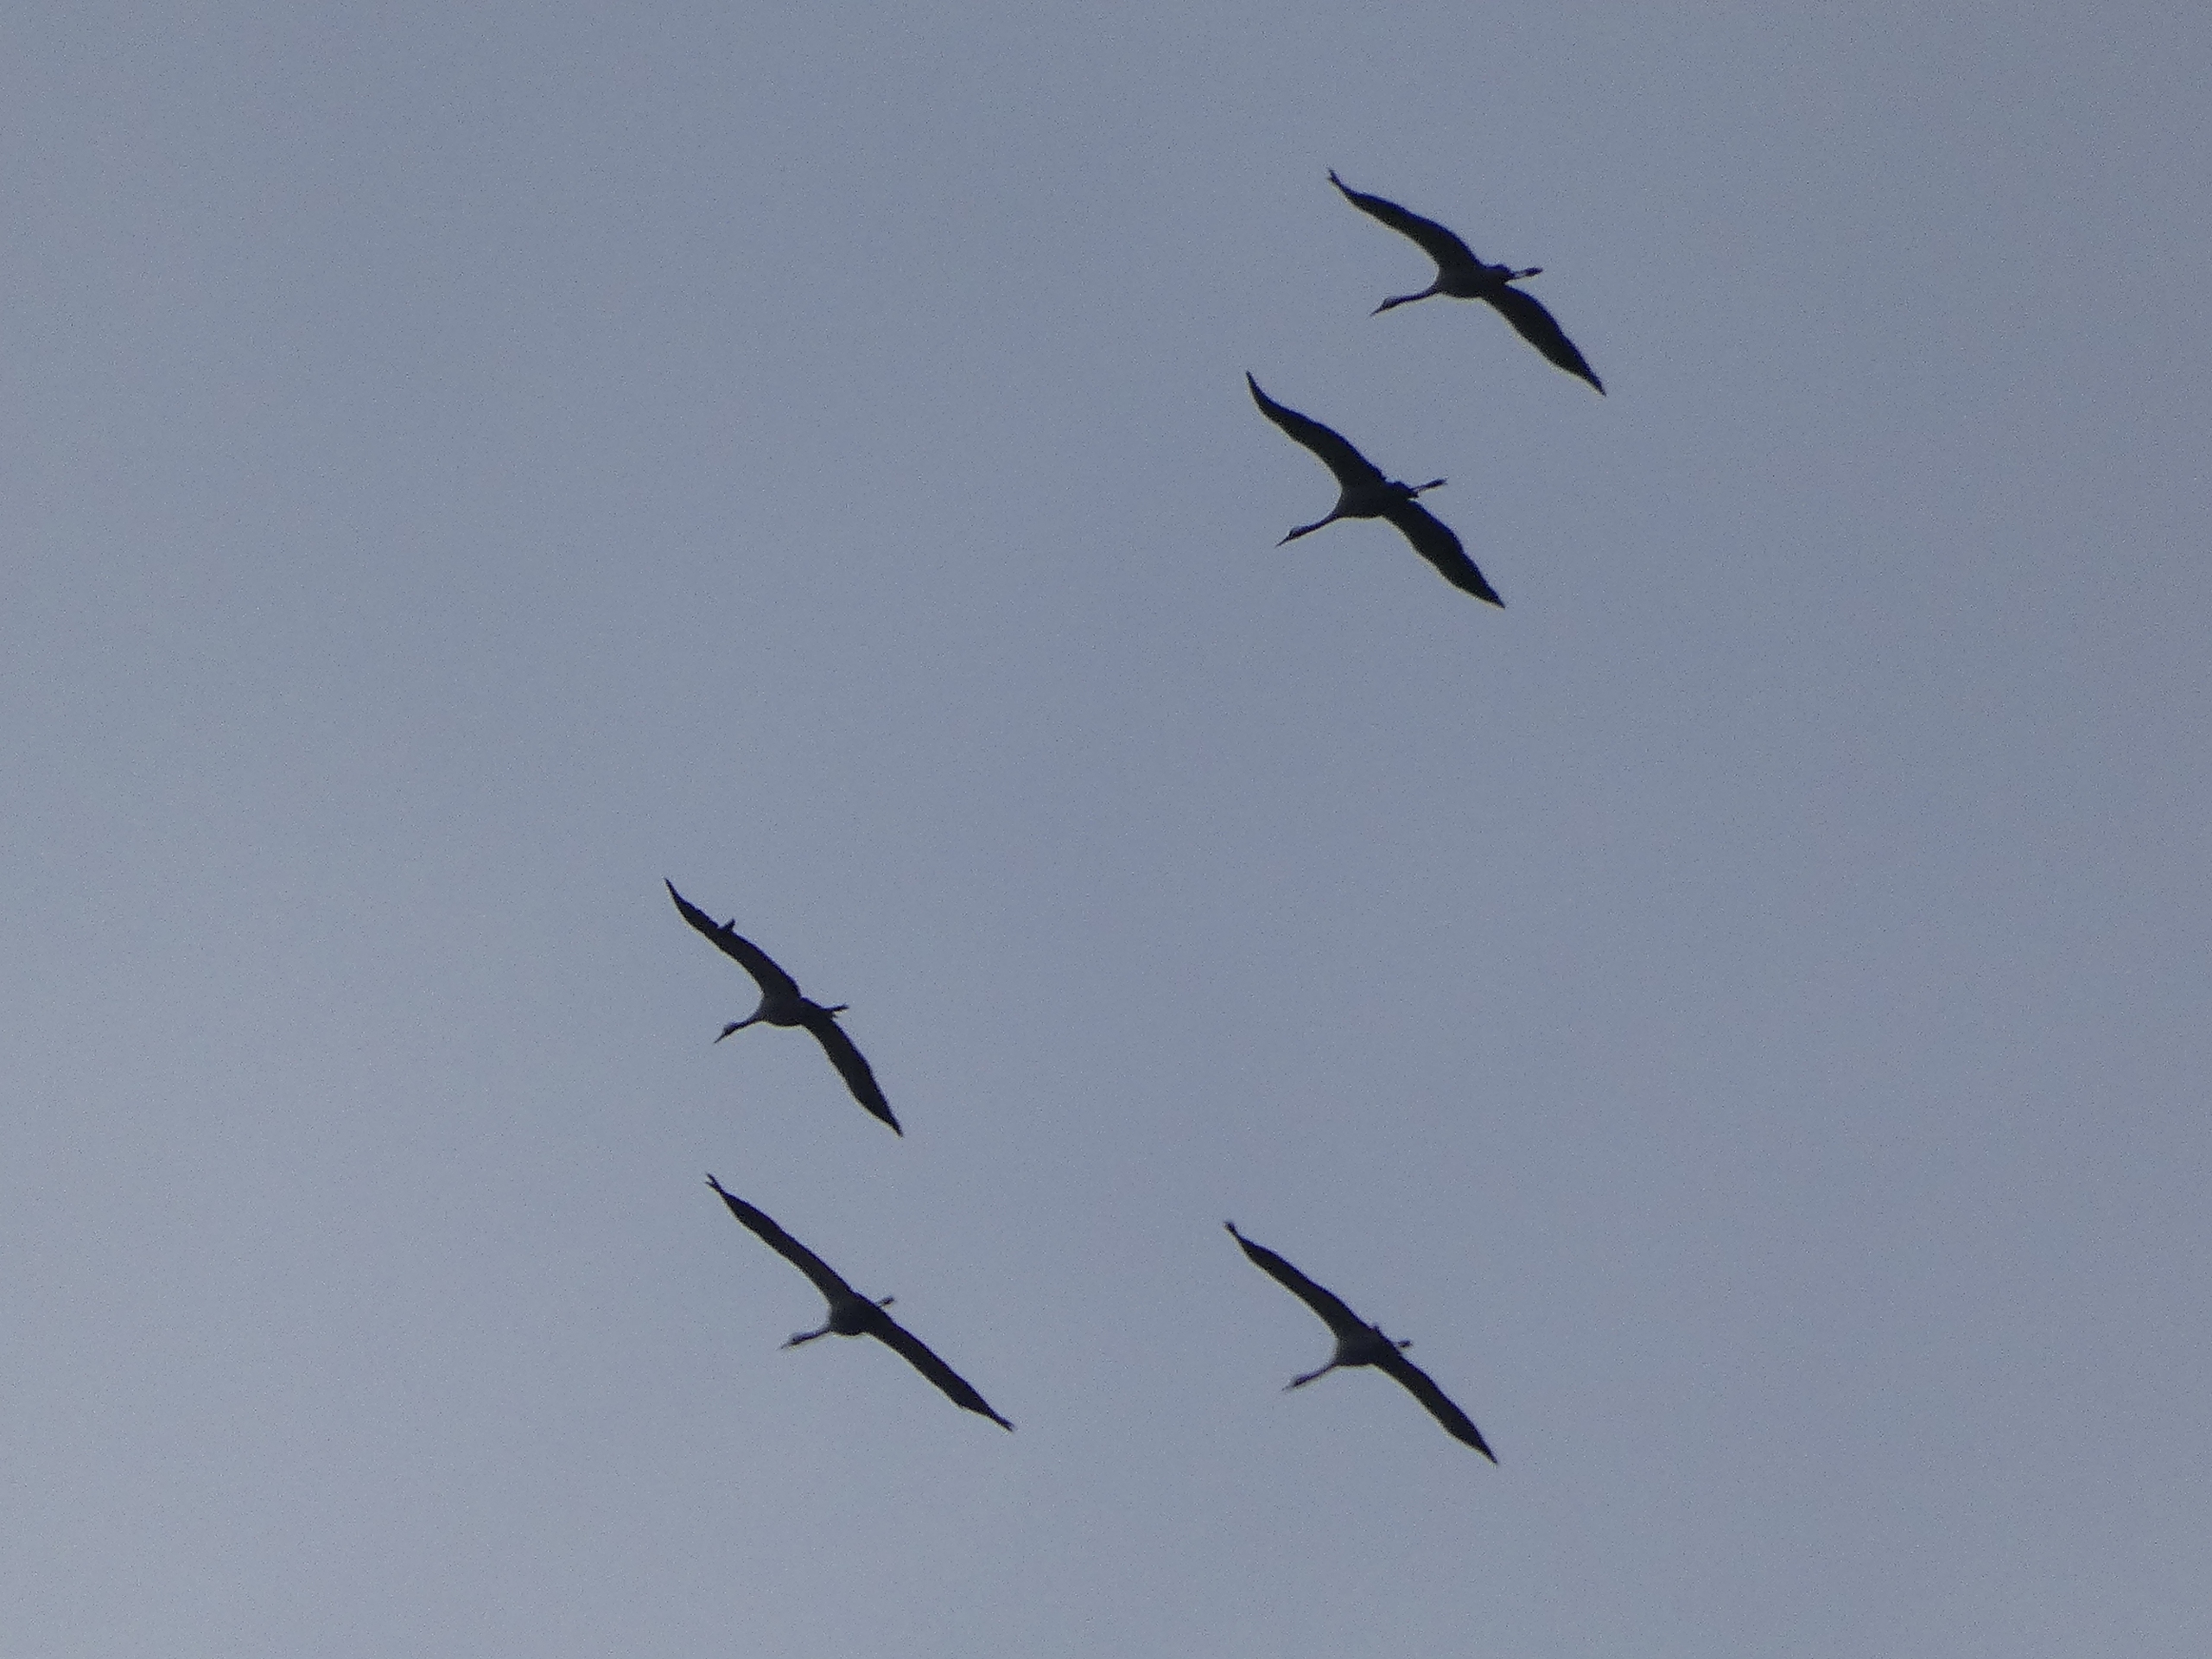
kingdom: Animalia
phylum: Chordata
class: Aves
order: Gruiformes
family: Gruidae
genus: Grus
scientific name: Grus grus
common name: Trane
